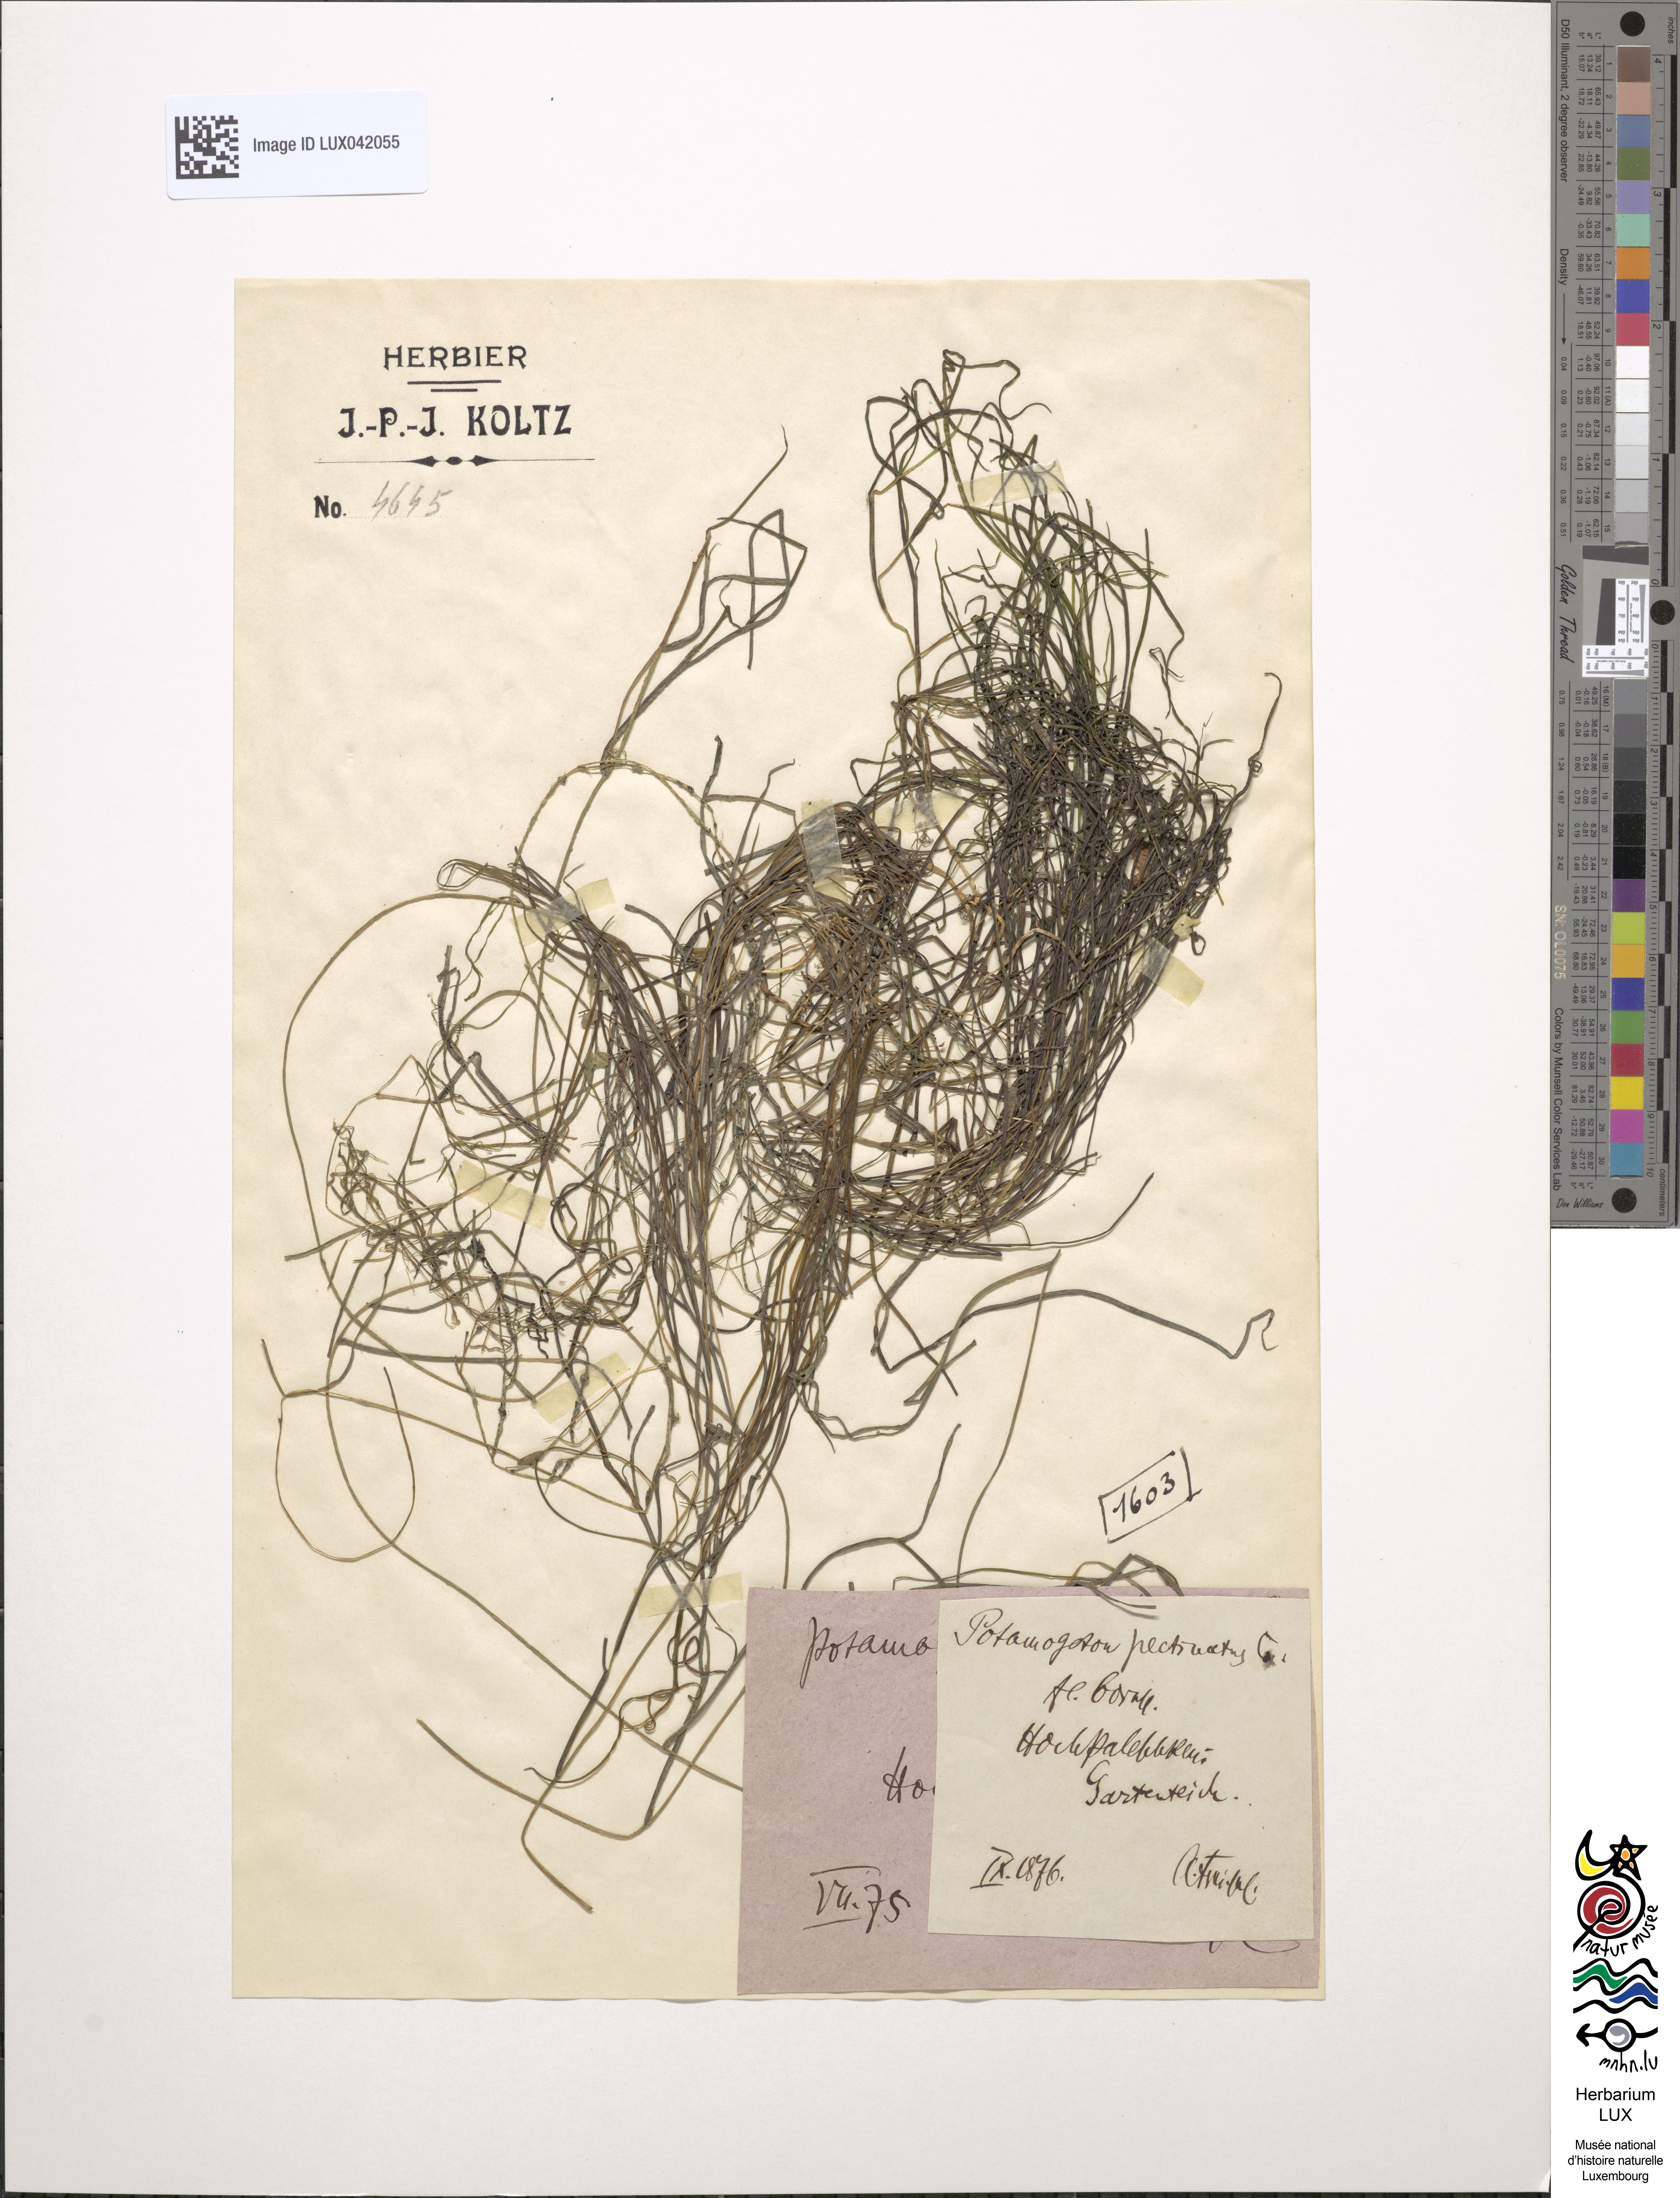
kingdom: Plantae
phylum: Tracheophyta
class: Liliopsida
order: Alismatales
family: Potamogetonaceae
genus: Stuckenia
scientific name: Stuckenia pectinata
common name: Sago pondweed
